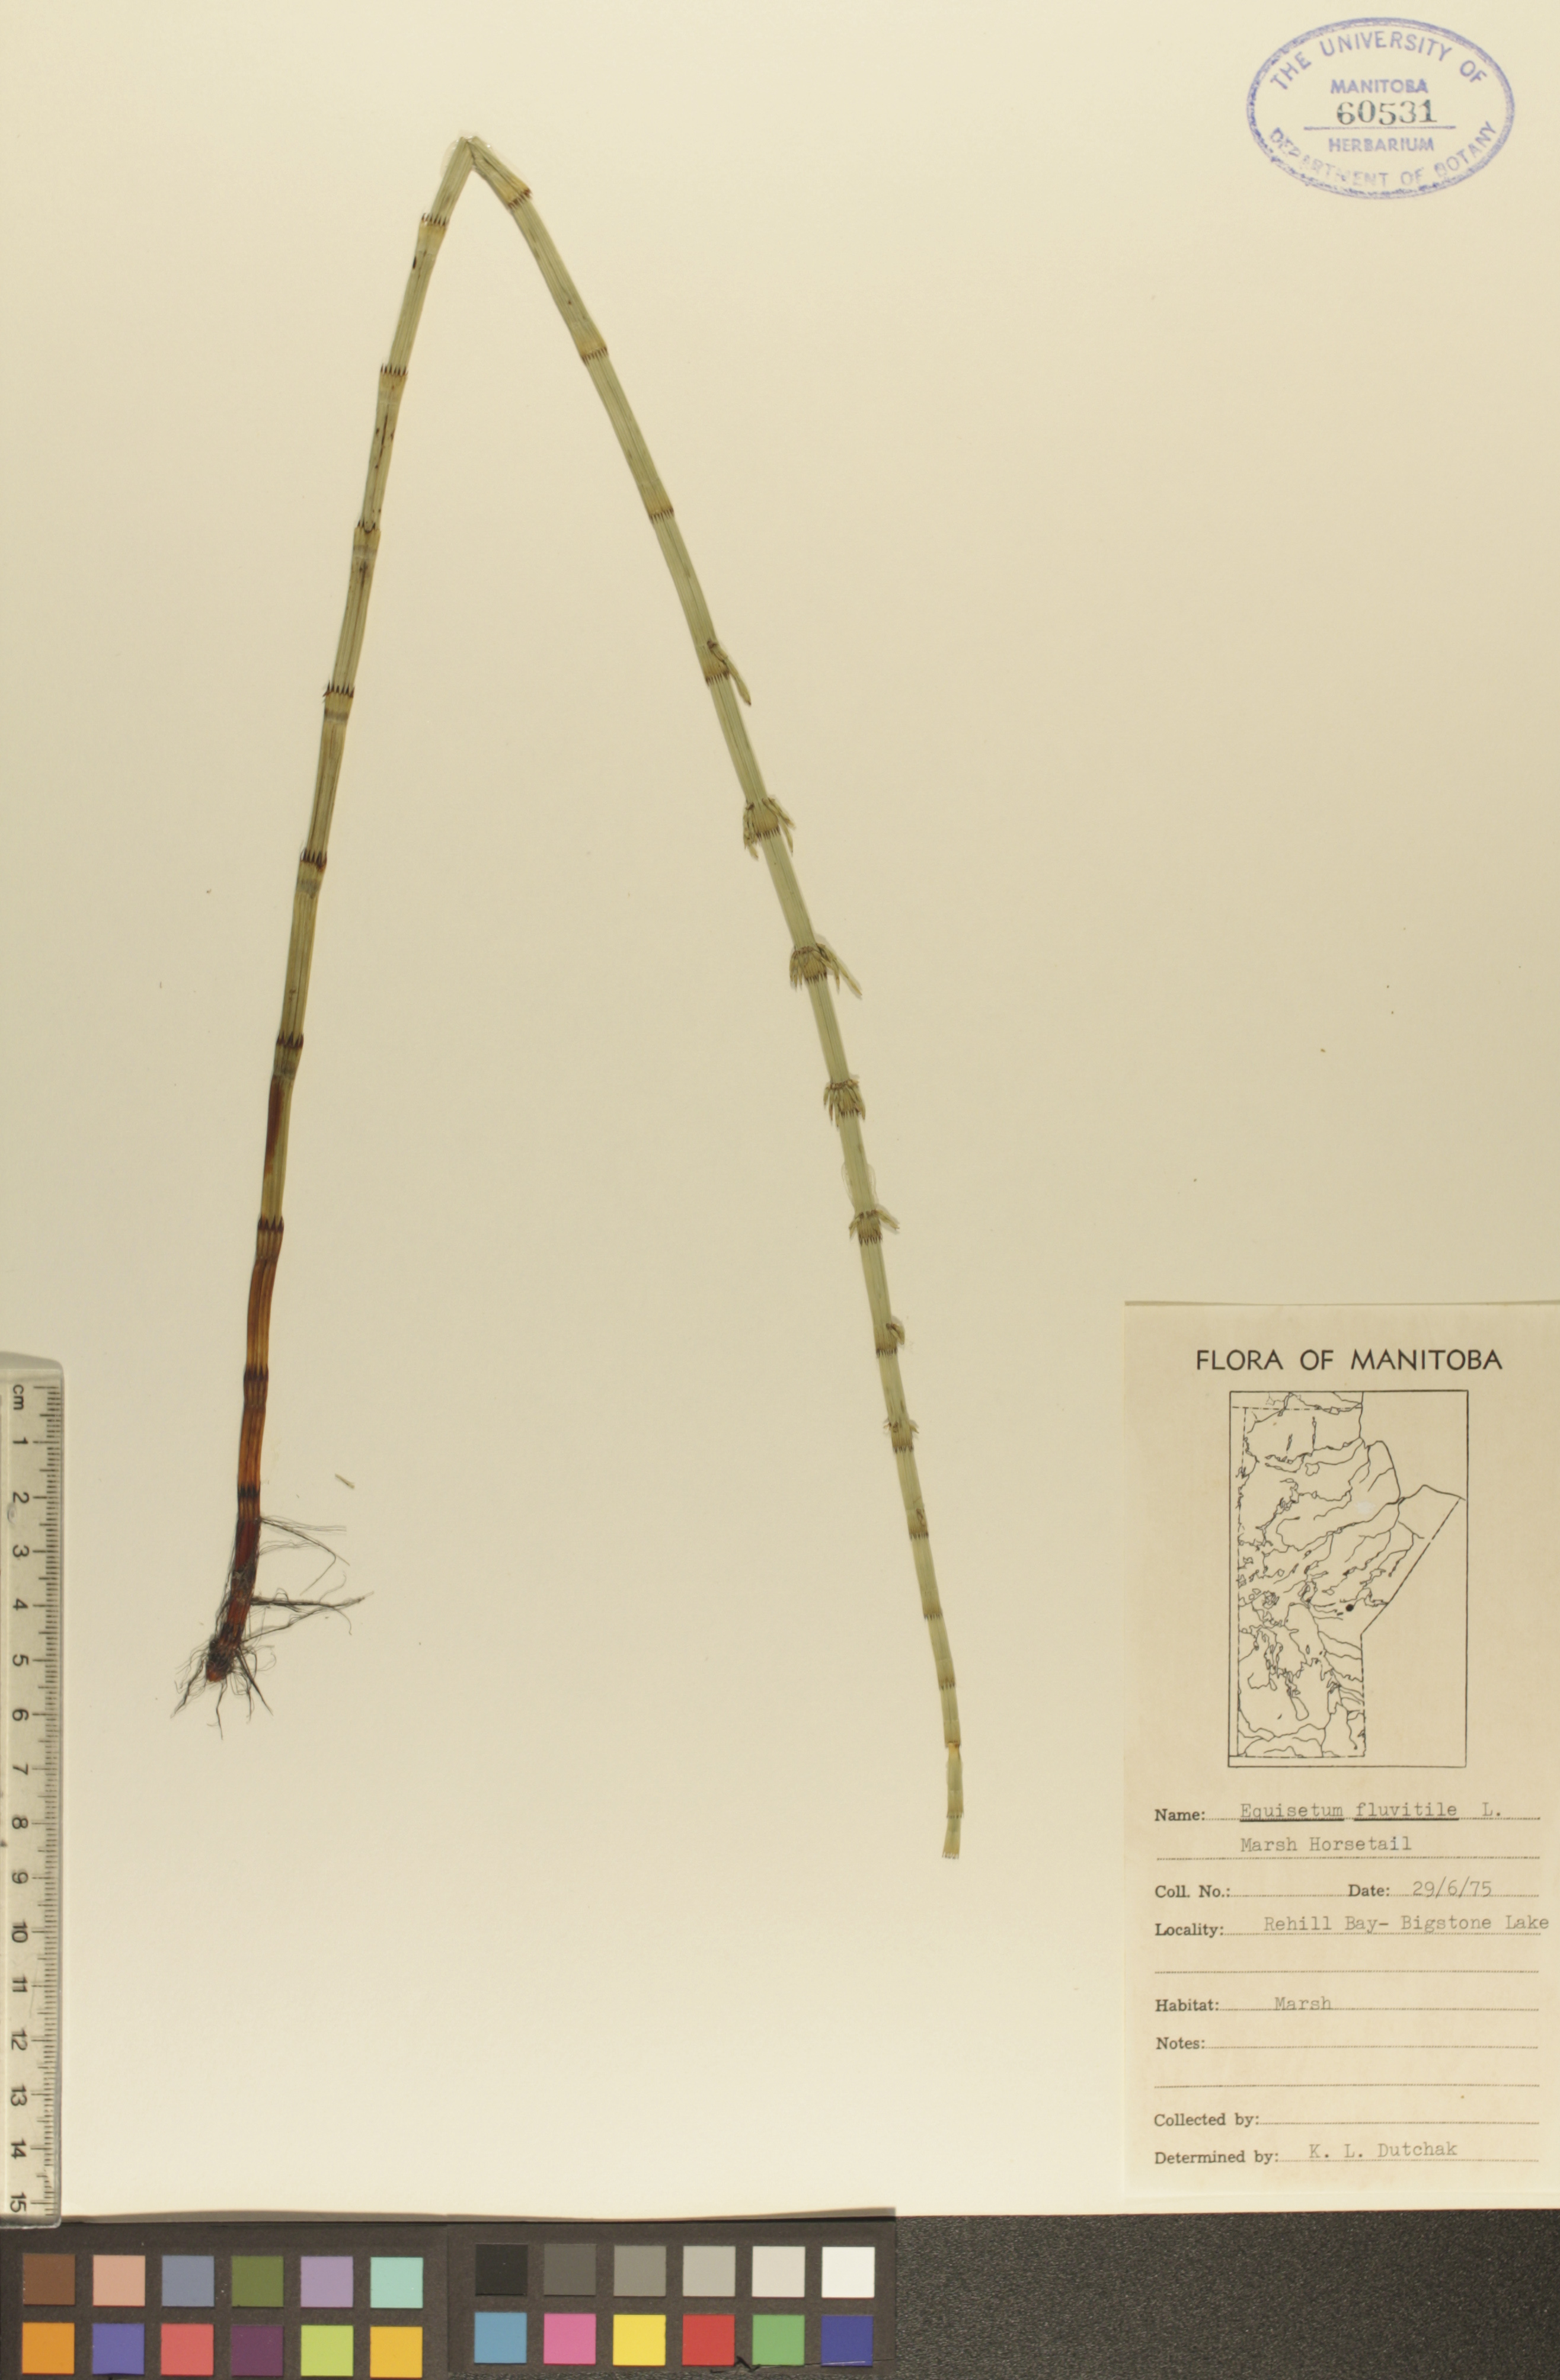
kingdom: Plantae
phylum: Tracheophyta
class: Polypodiopsida
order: Equisetales
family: Equisetaceae
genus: Equisetum
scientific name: Equisetum fluviatile
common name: Water horsetail
